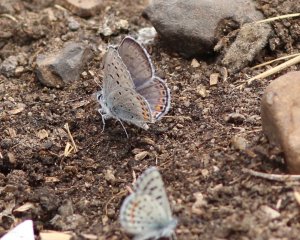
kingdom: Animalia
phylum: Arthropoda
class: Insecta
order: Lepidoptera
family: Lycaenidae
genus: Plebejus
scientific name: Plebejus lupini
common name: Lupine Blue
